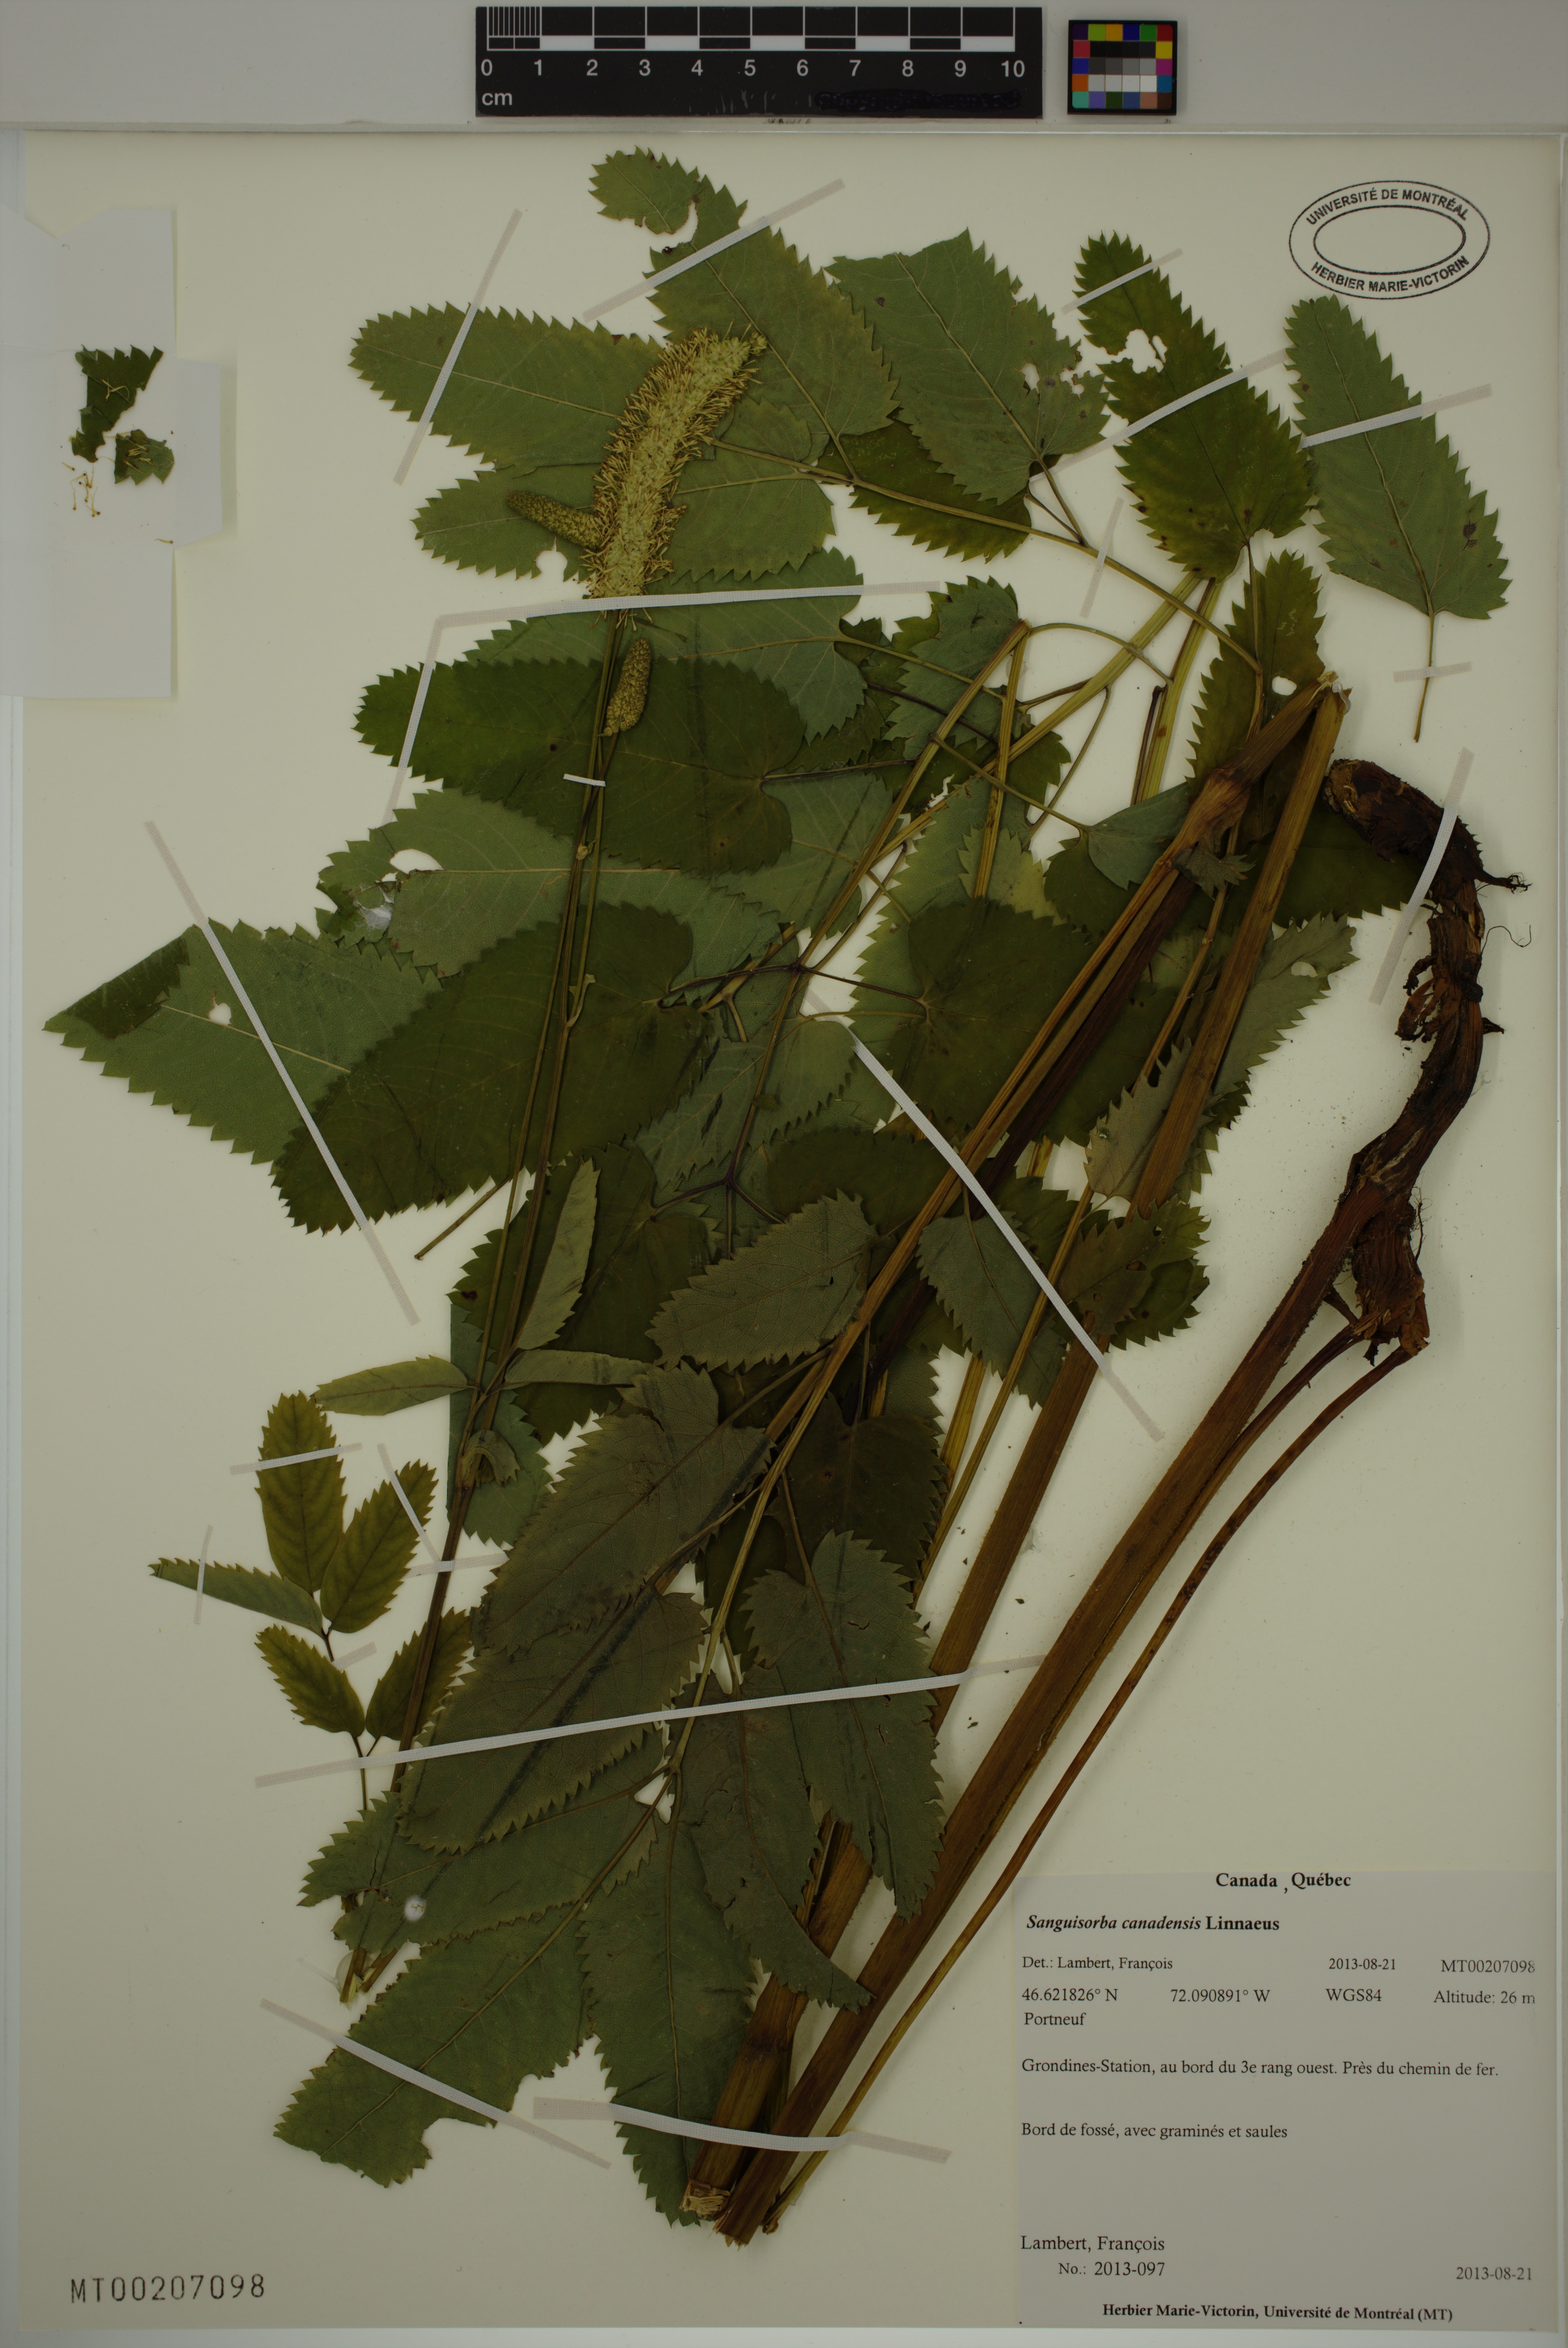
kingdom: Plantae
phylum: Tracheophyta
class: Magnoliopsida
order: Rosales
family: Rosaceae
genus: Sanguisorba
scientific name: Sanguisorba canadensis
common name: White burnet
